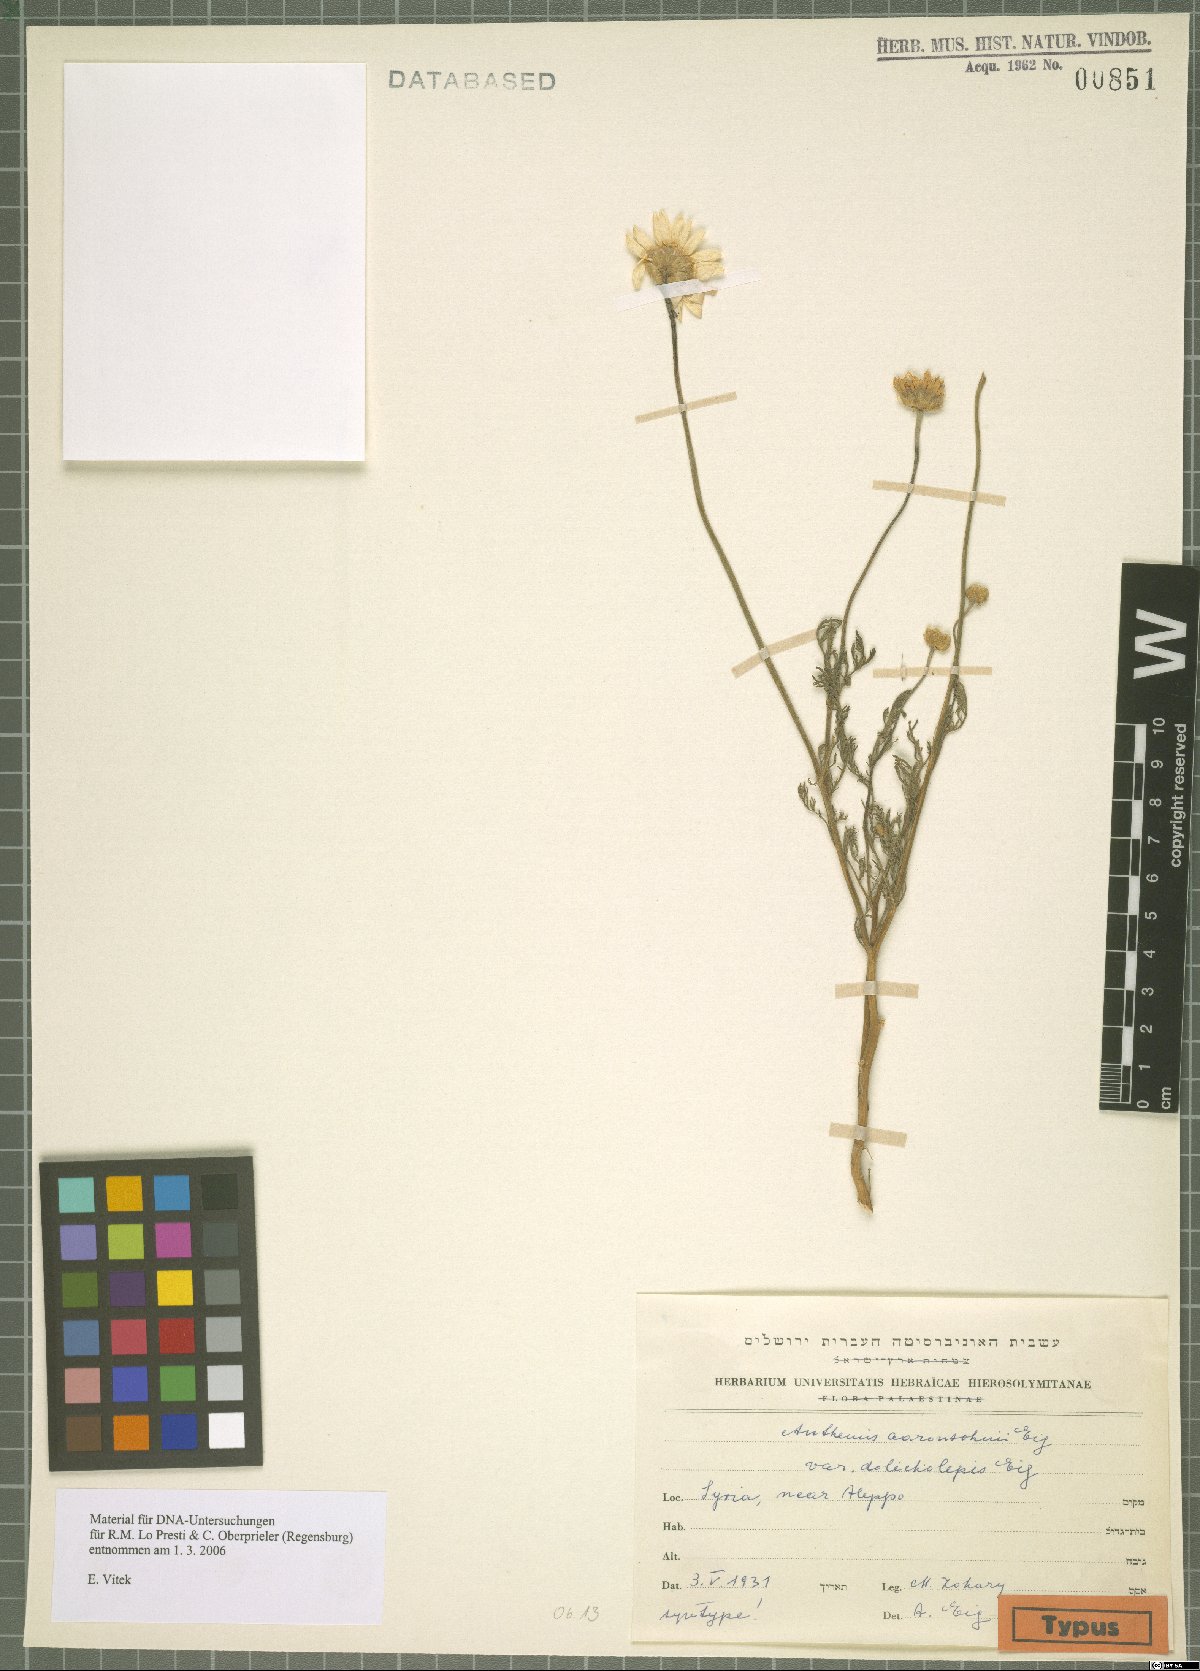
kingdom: Plantae
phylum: Tracheophyta
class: Magnoliopsida
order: Asterales
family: Asteraceae
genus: Anthemis
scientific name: Anthemis aaronsohnii
